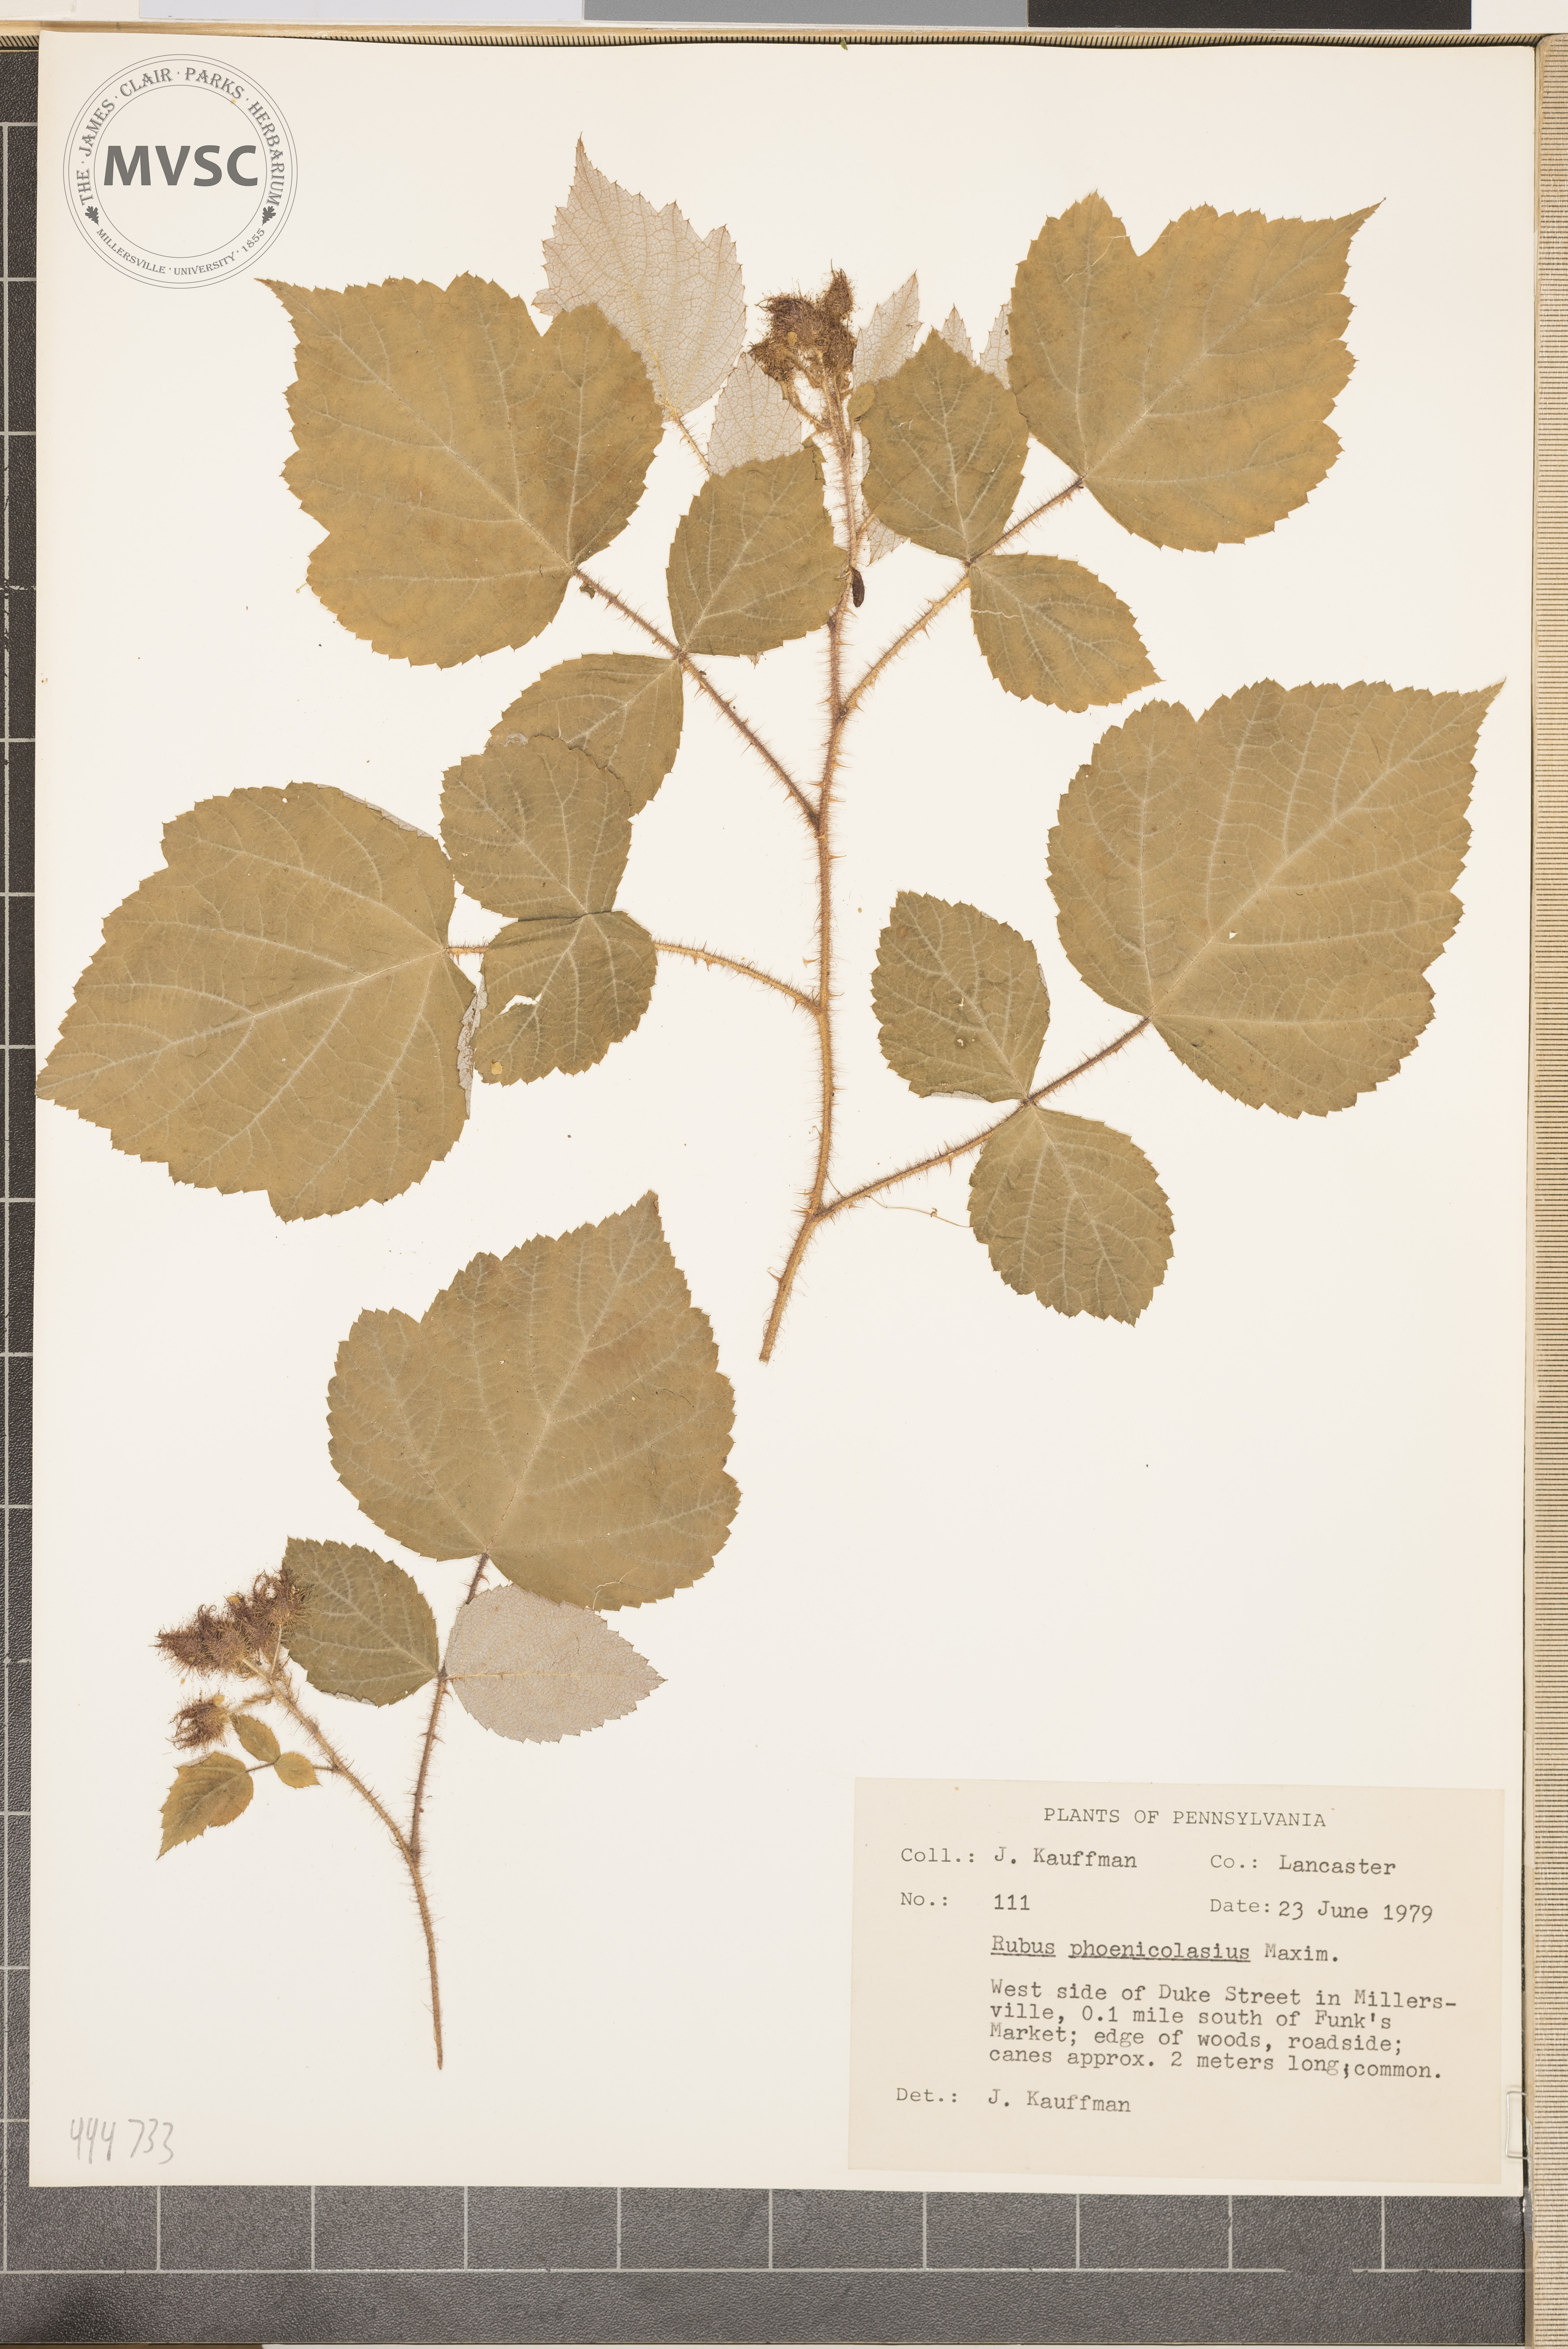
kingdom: Plantae
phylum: Tracheophyta
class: Magnoliopsida
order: Rosales
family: Rosaceae
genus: Rubus
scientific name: Rubus phoenicolasius
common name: Japanese wineberry
